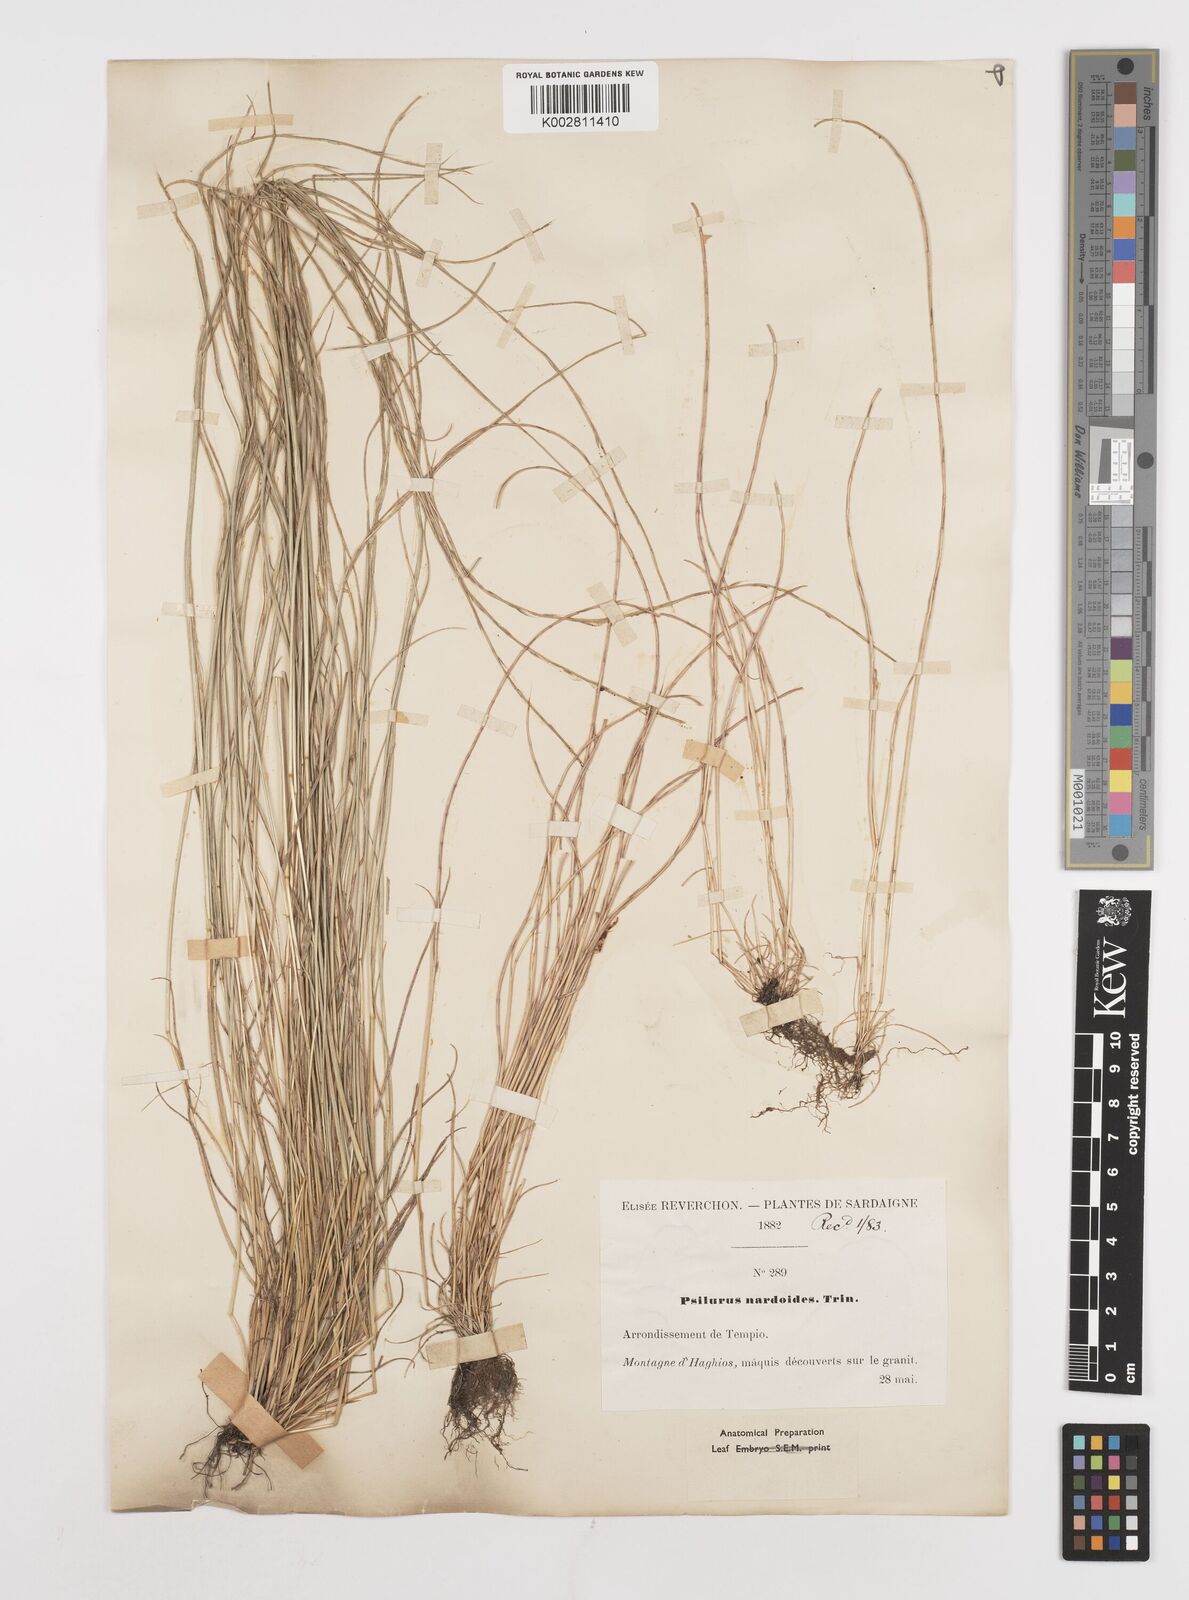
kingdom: Plantae
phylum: Tracheophyta
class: Liliopsida
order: Poales
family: Poaceae
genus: Festuca
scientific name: Festuca incurva
